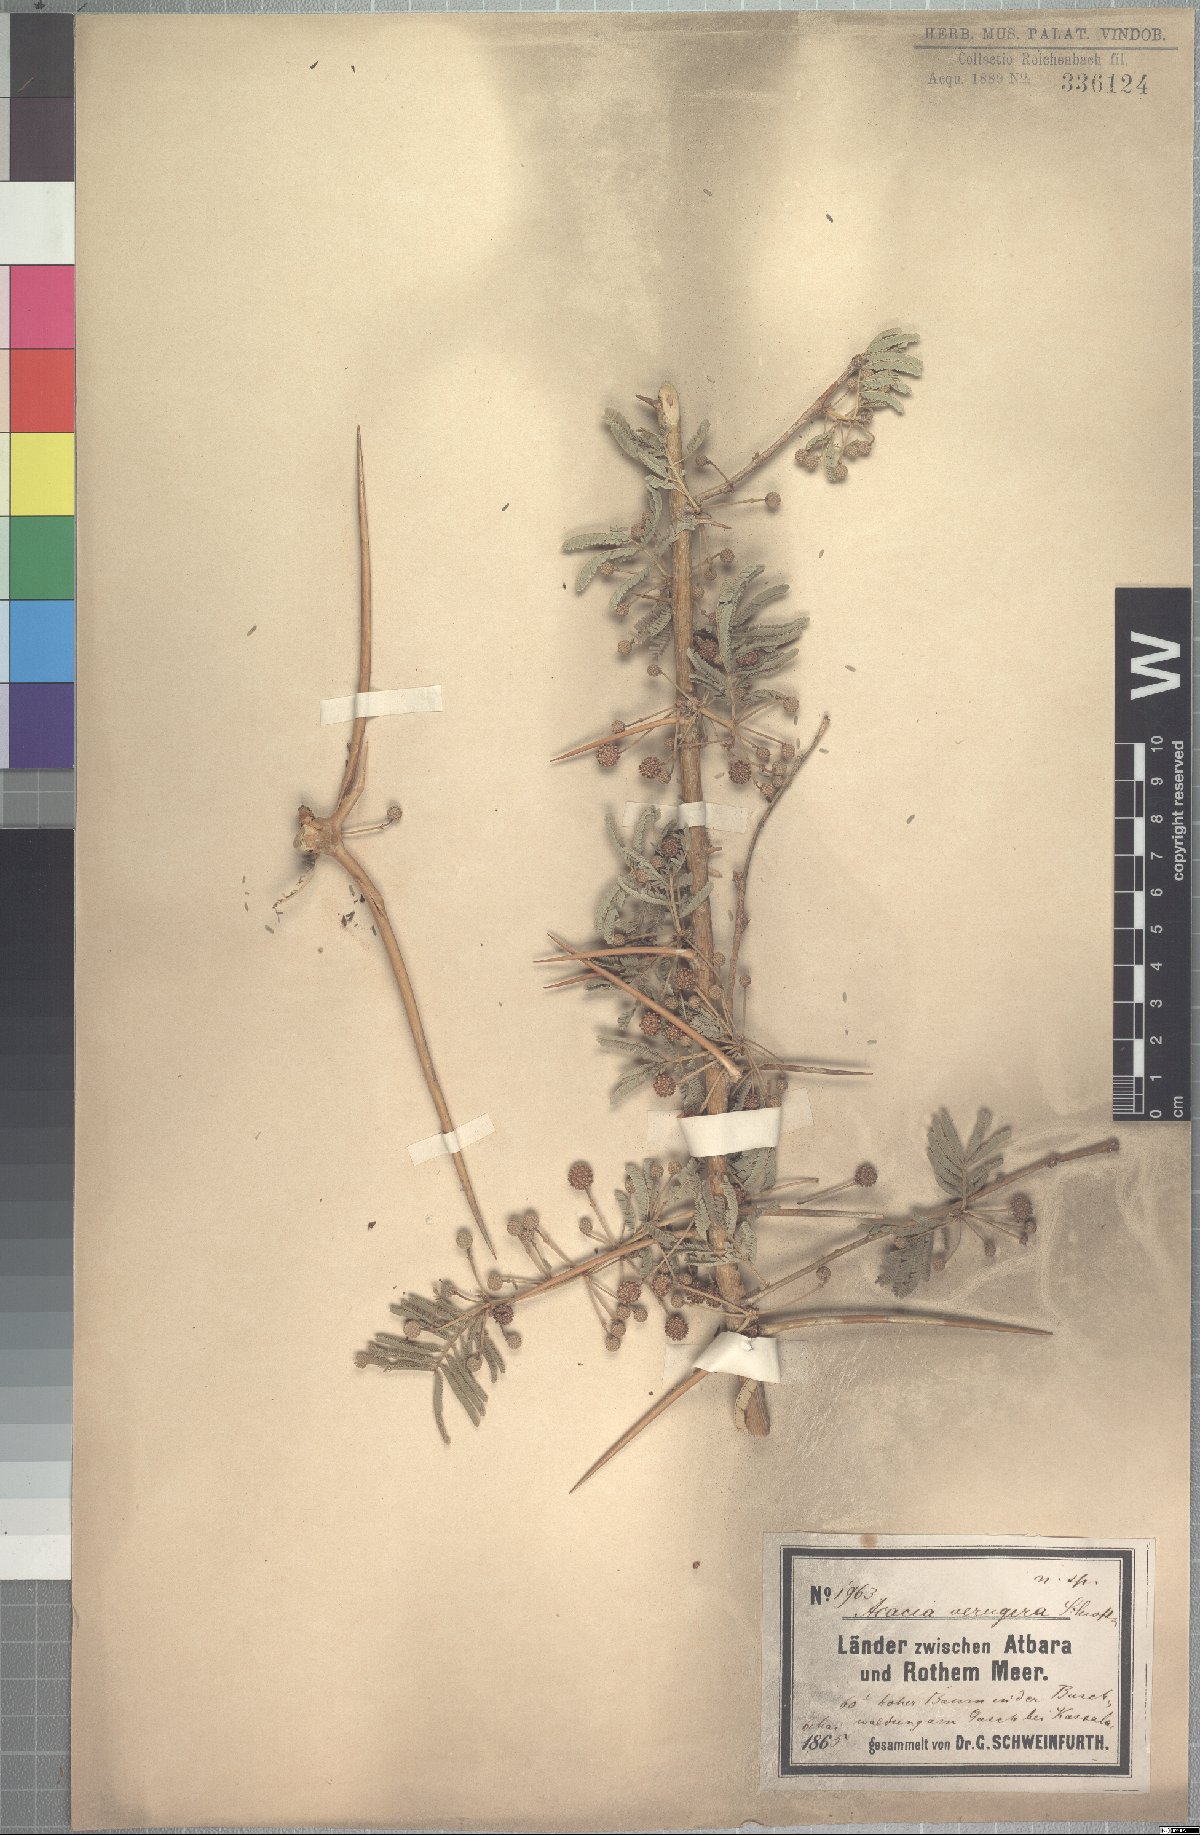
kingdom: Plantae
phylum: Tracheophyta
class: Magnoliopsida
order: Fabales
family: Fabaceae
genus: Vachellia
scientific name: Vachellia sieberiana
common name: Flat-topped thorn
